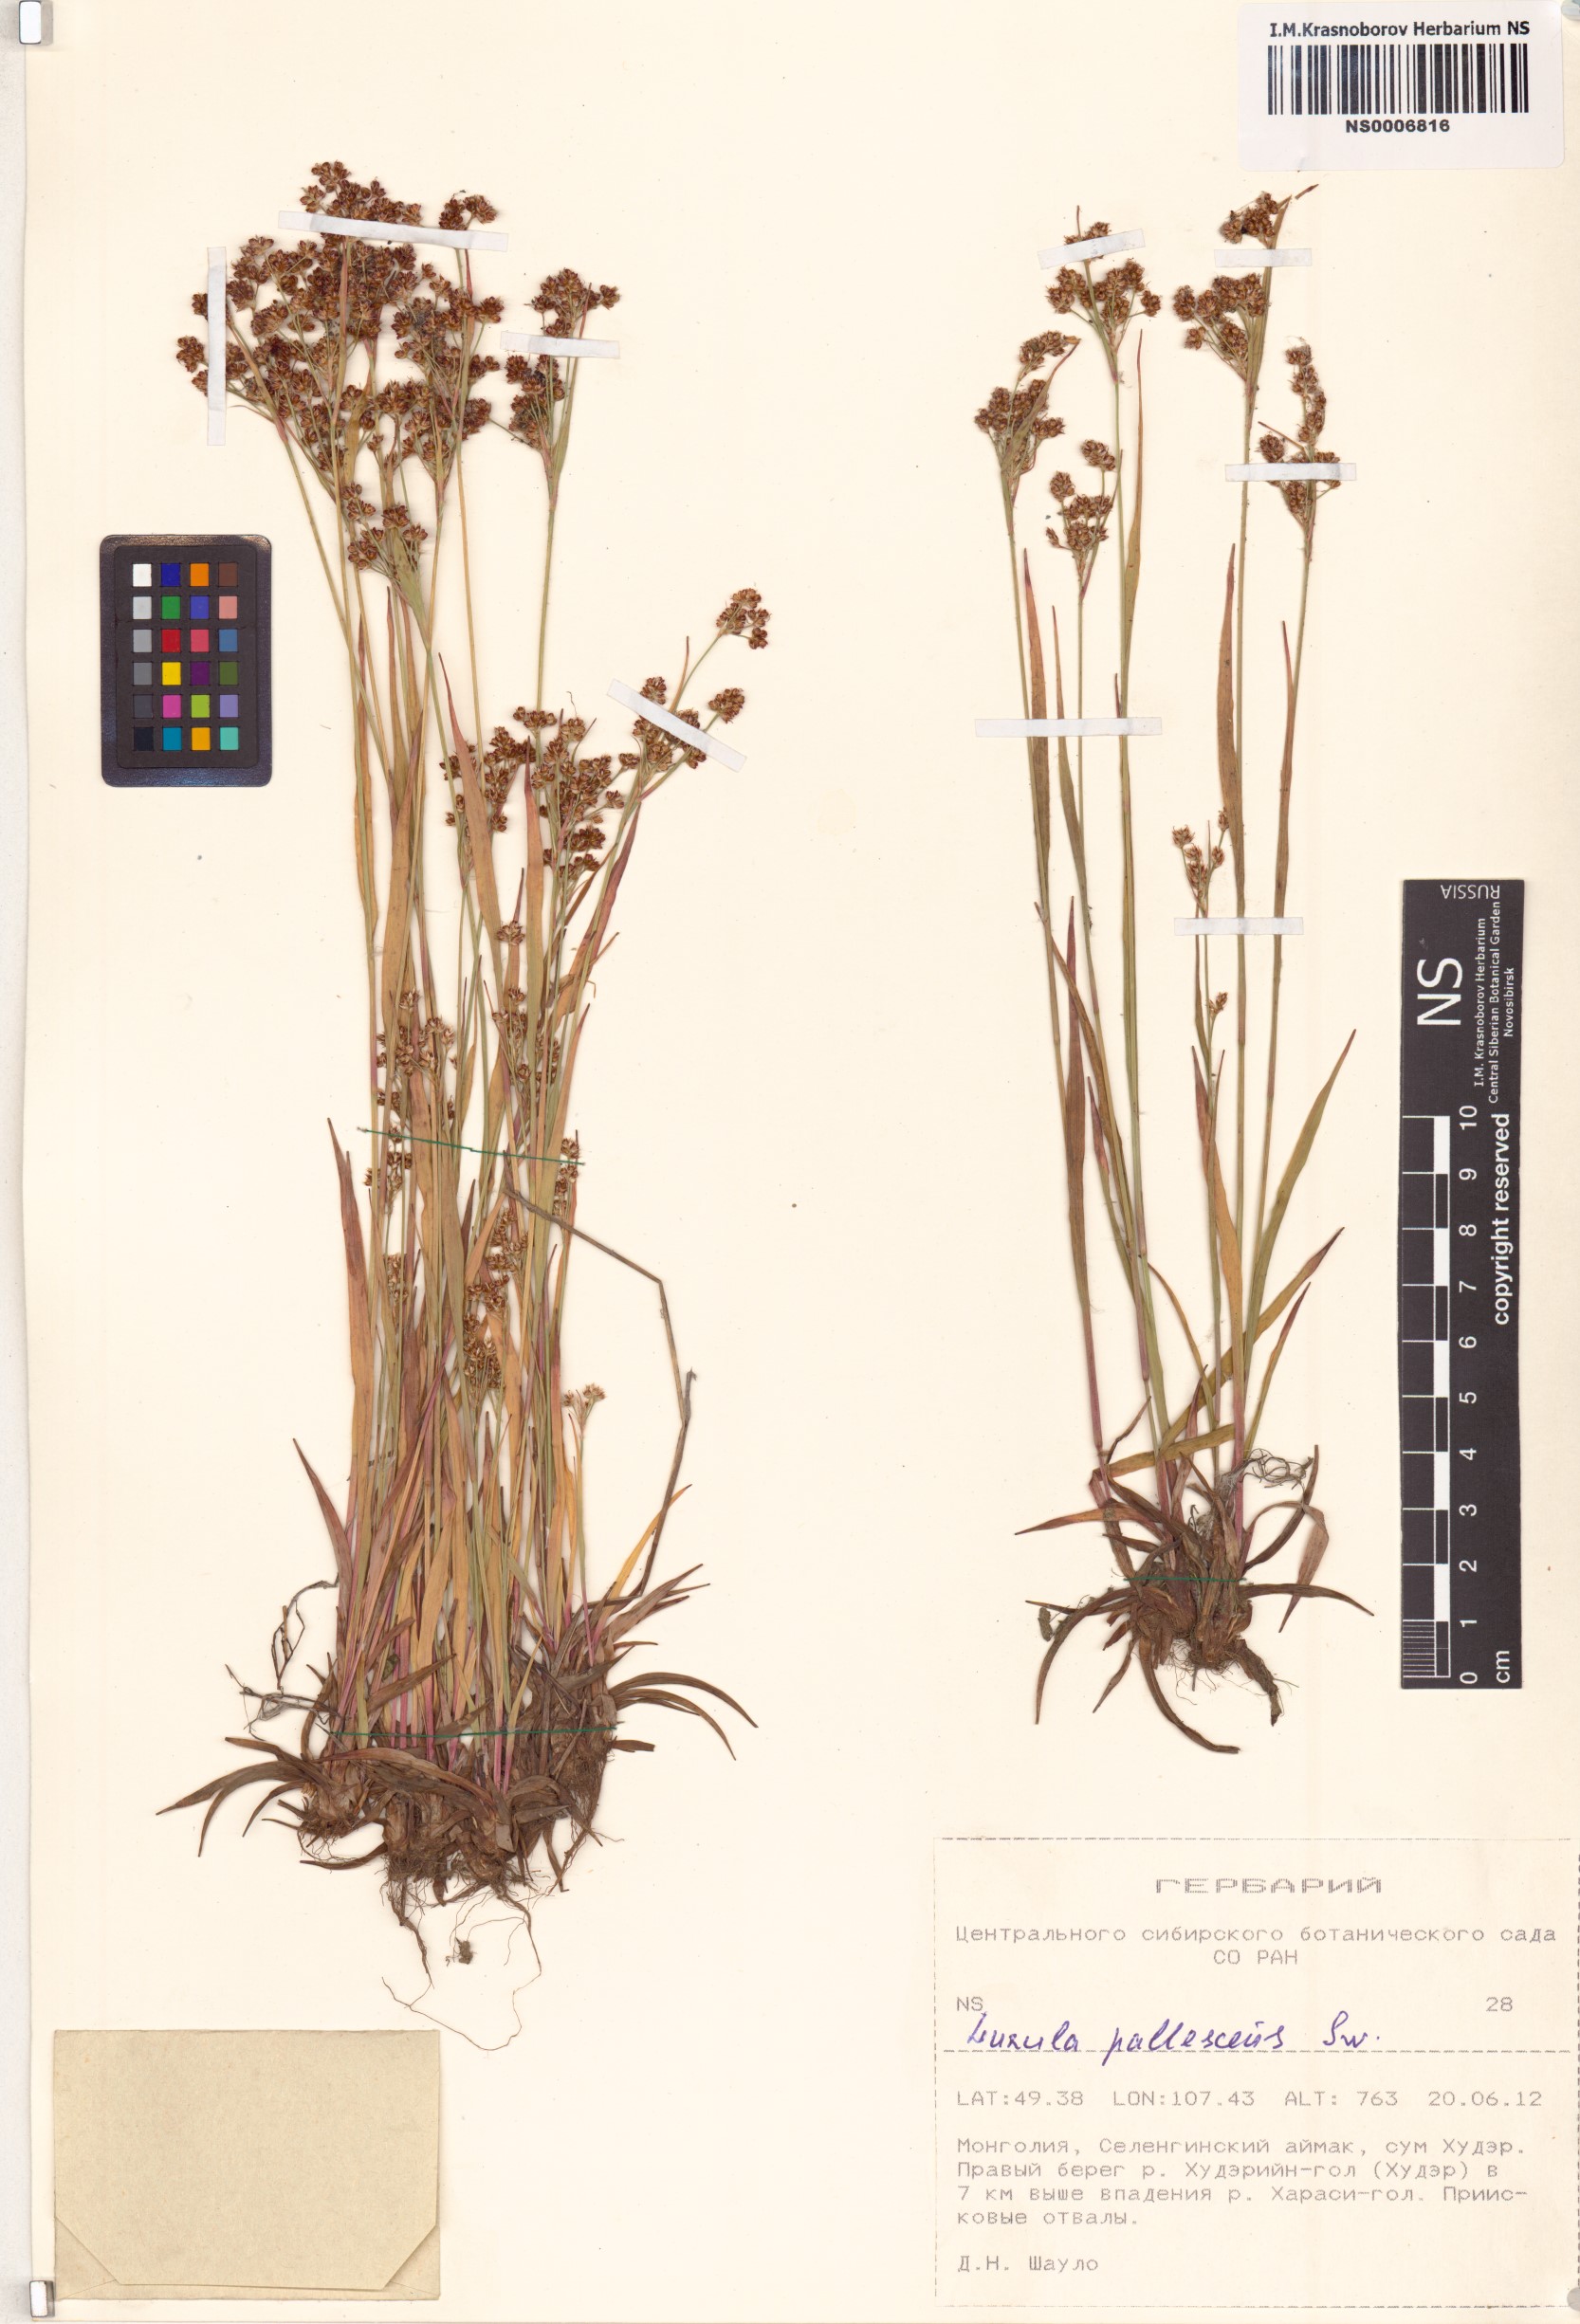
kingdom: Plantae
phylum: Tracheophyta
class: Liliopsida
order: Poales
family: Juncaceae
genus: Luzula
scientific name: Luzula pallescens
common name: Fen wood-rush
